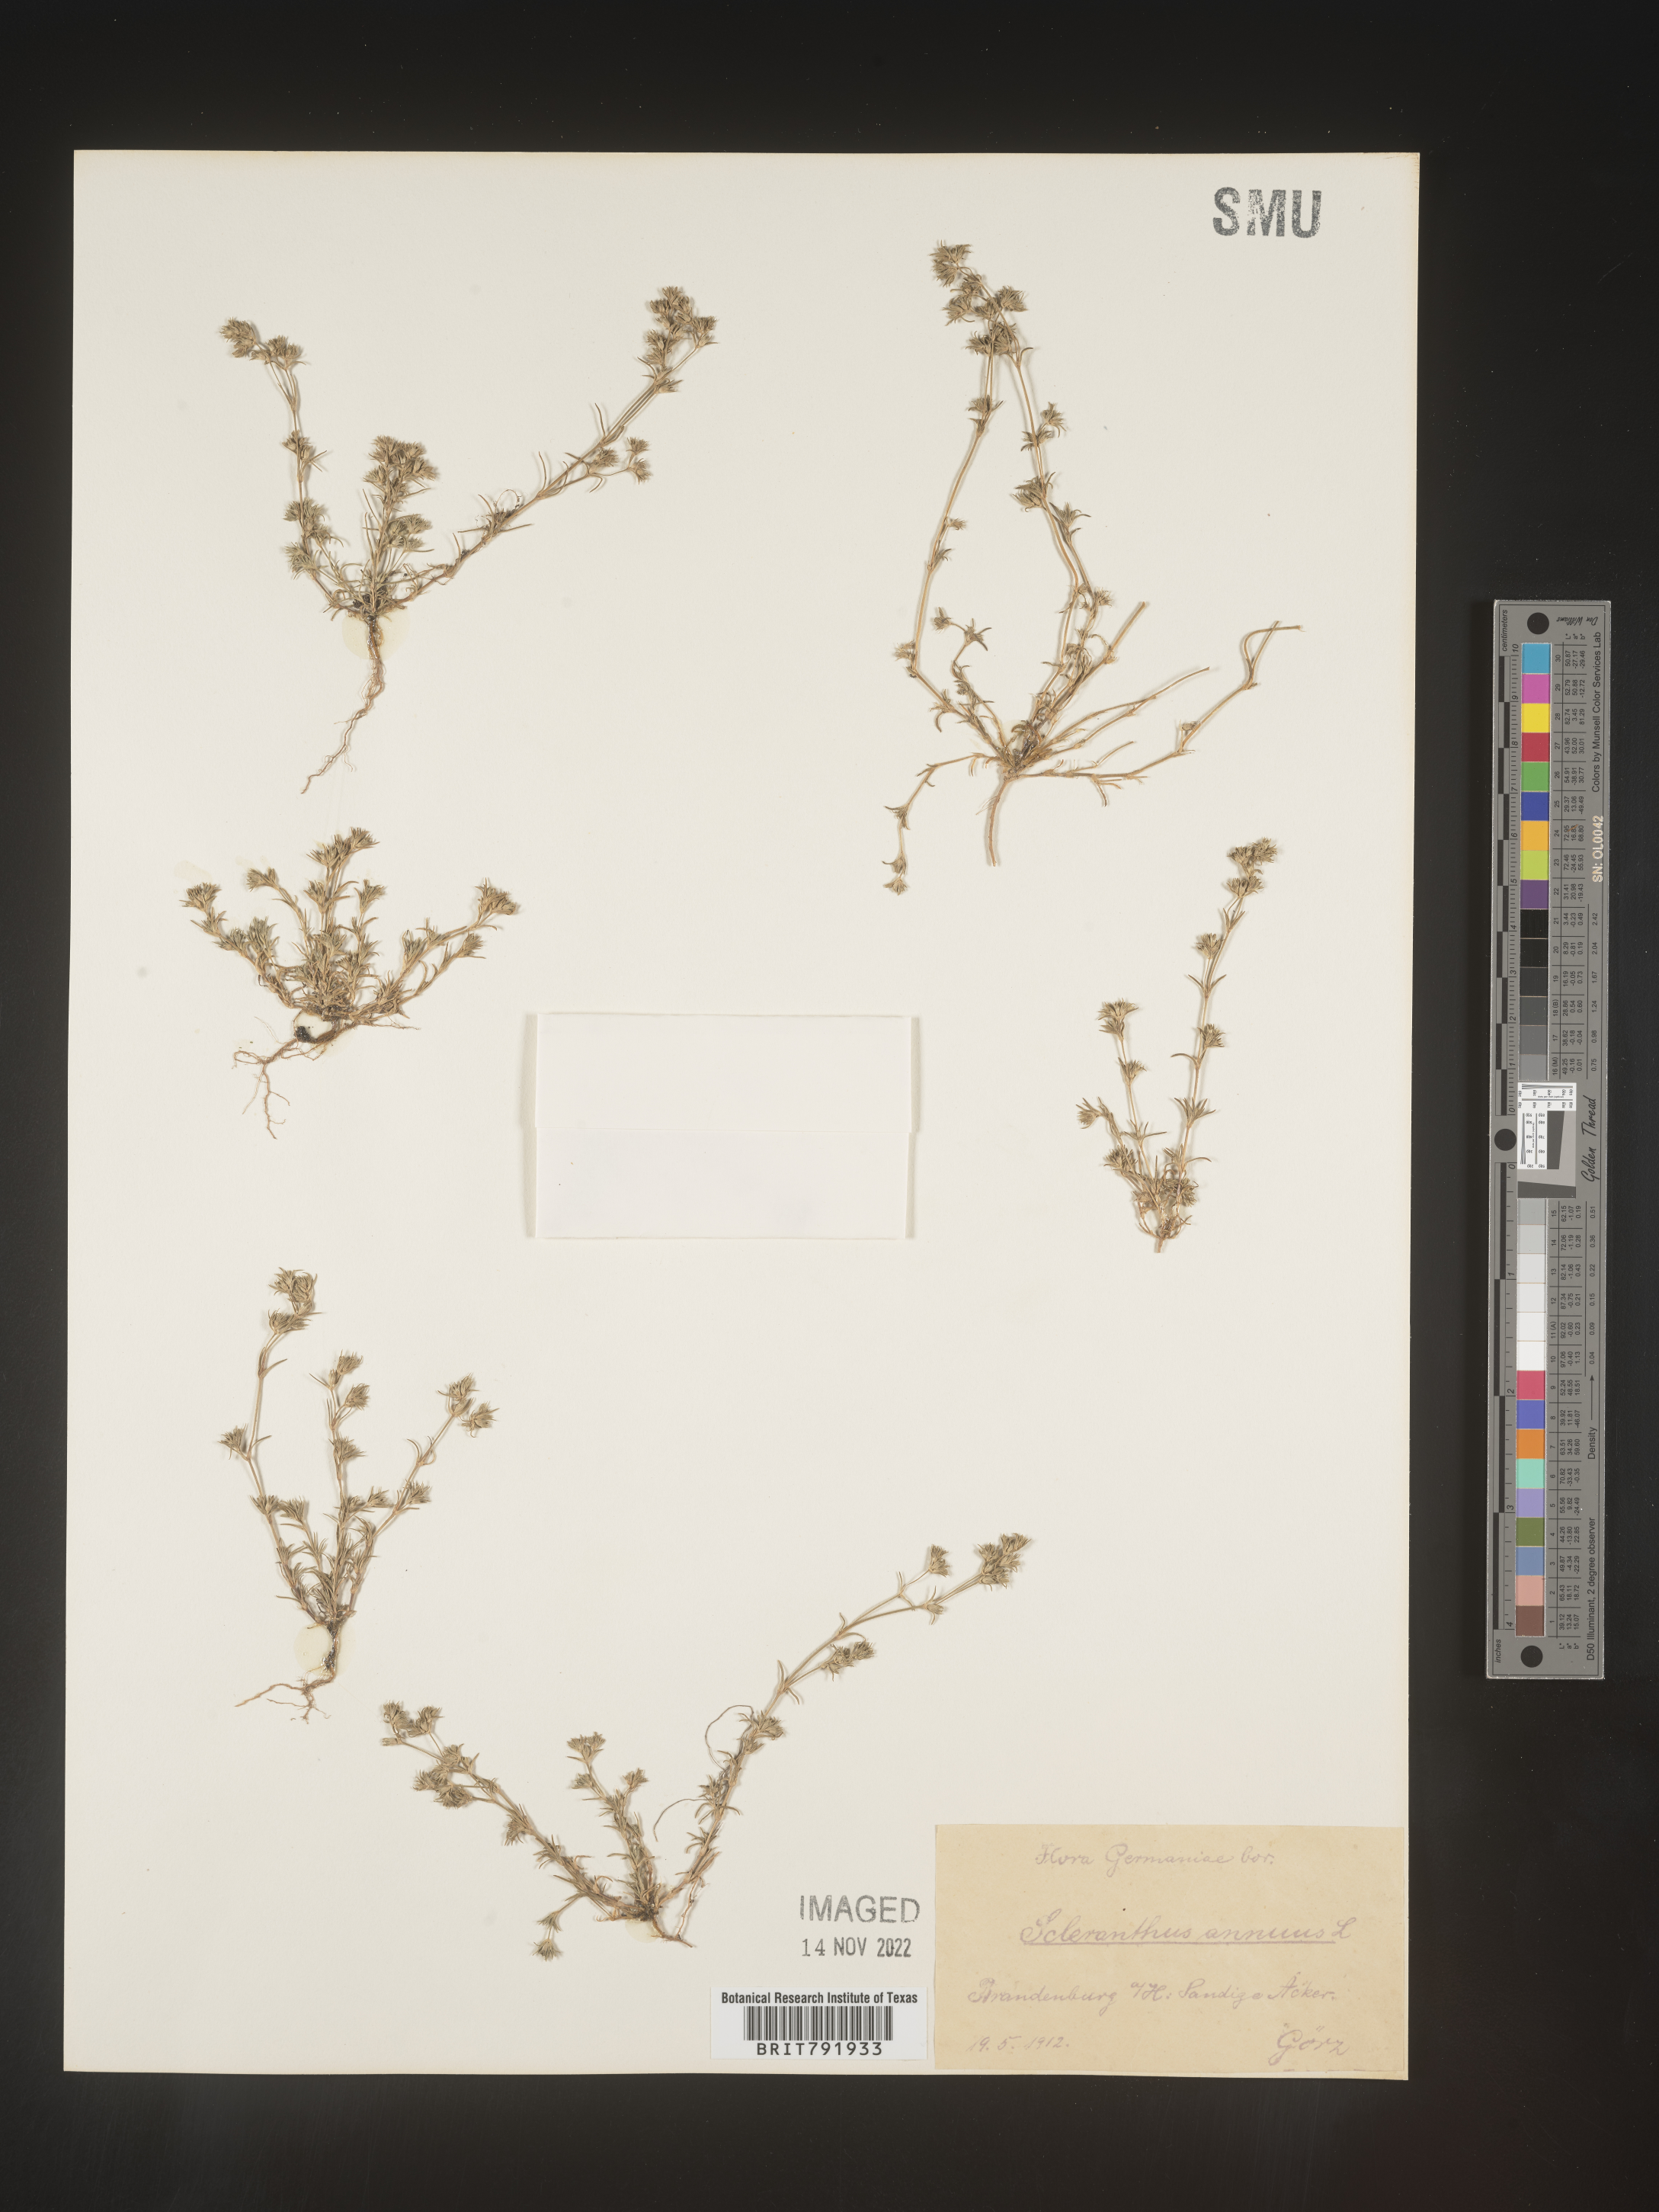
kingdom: Plantae
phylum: Tracheophyta
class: Magnoliopsida
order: Caryophyllales
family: Caryophyllaceae
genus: Scleranthus
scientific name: Scleranthus
